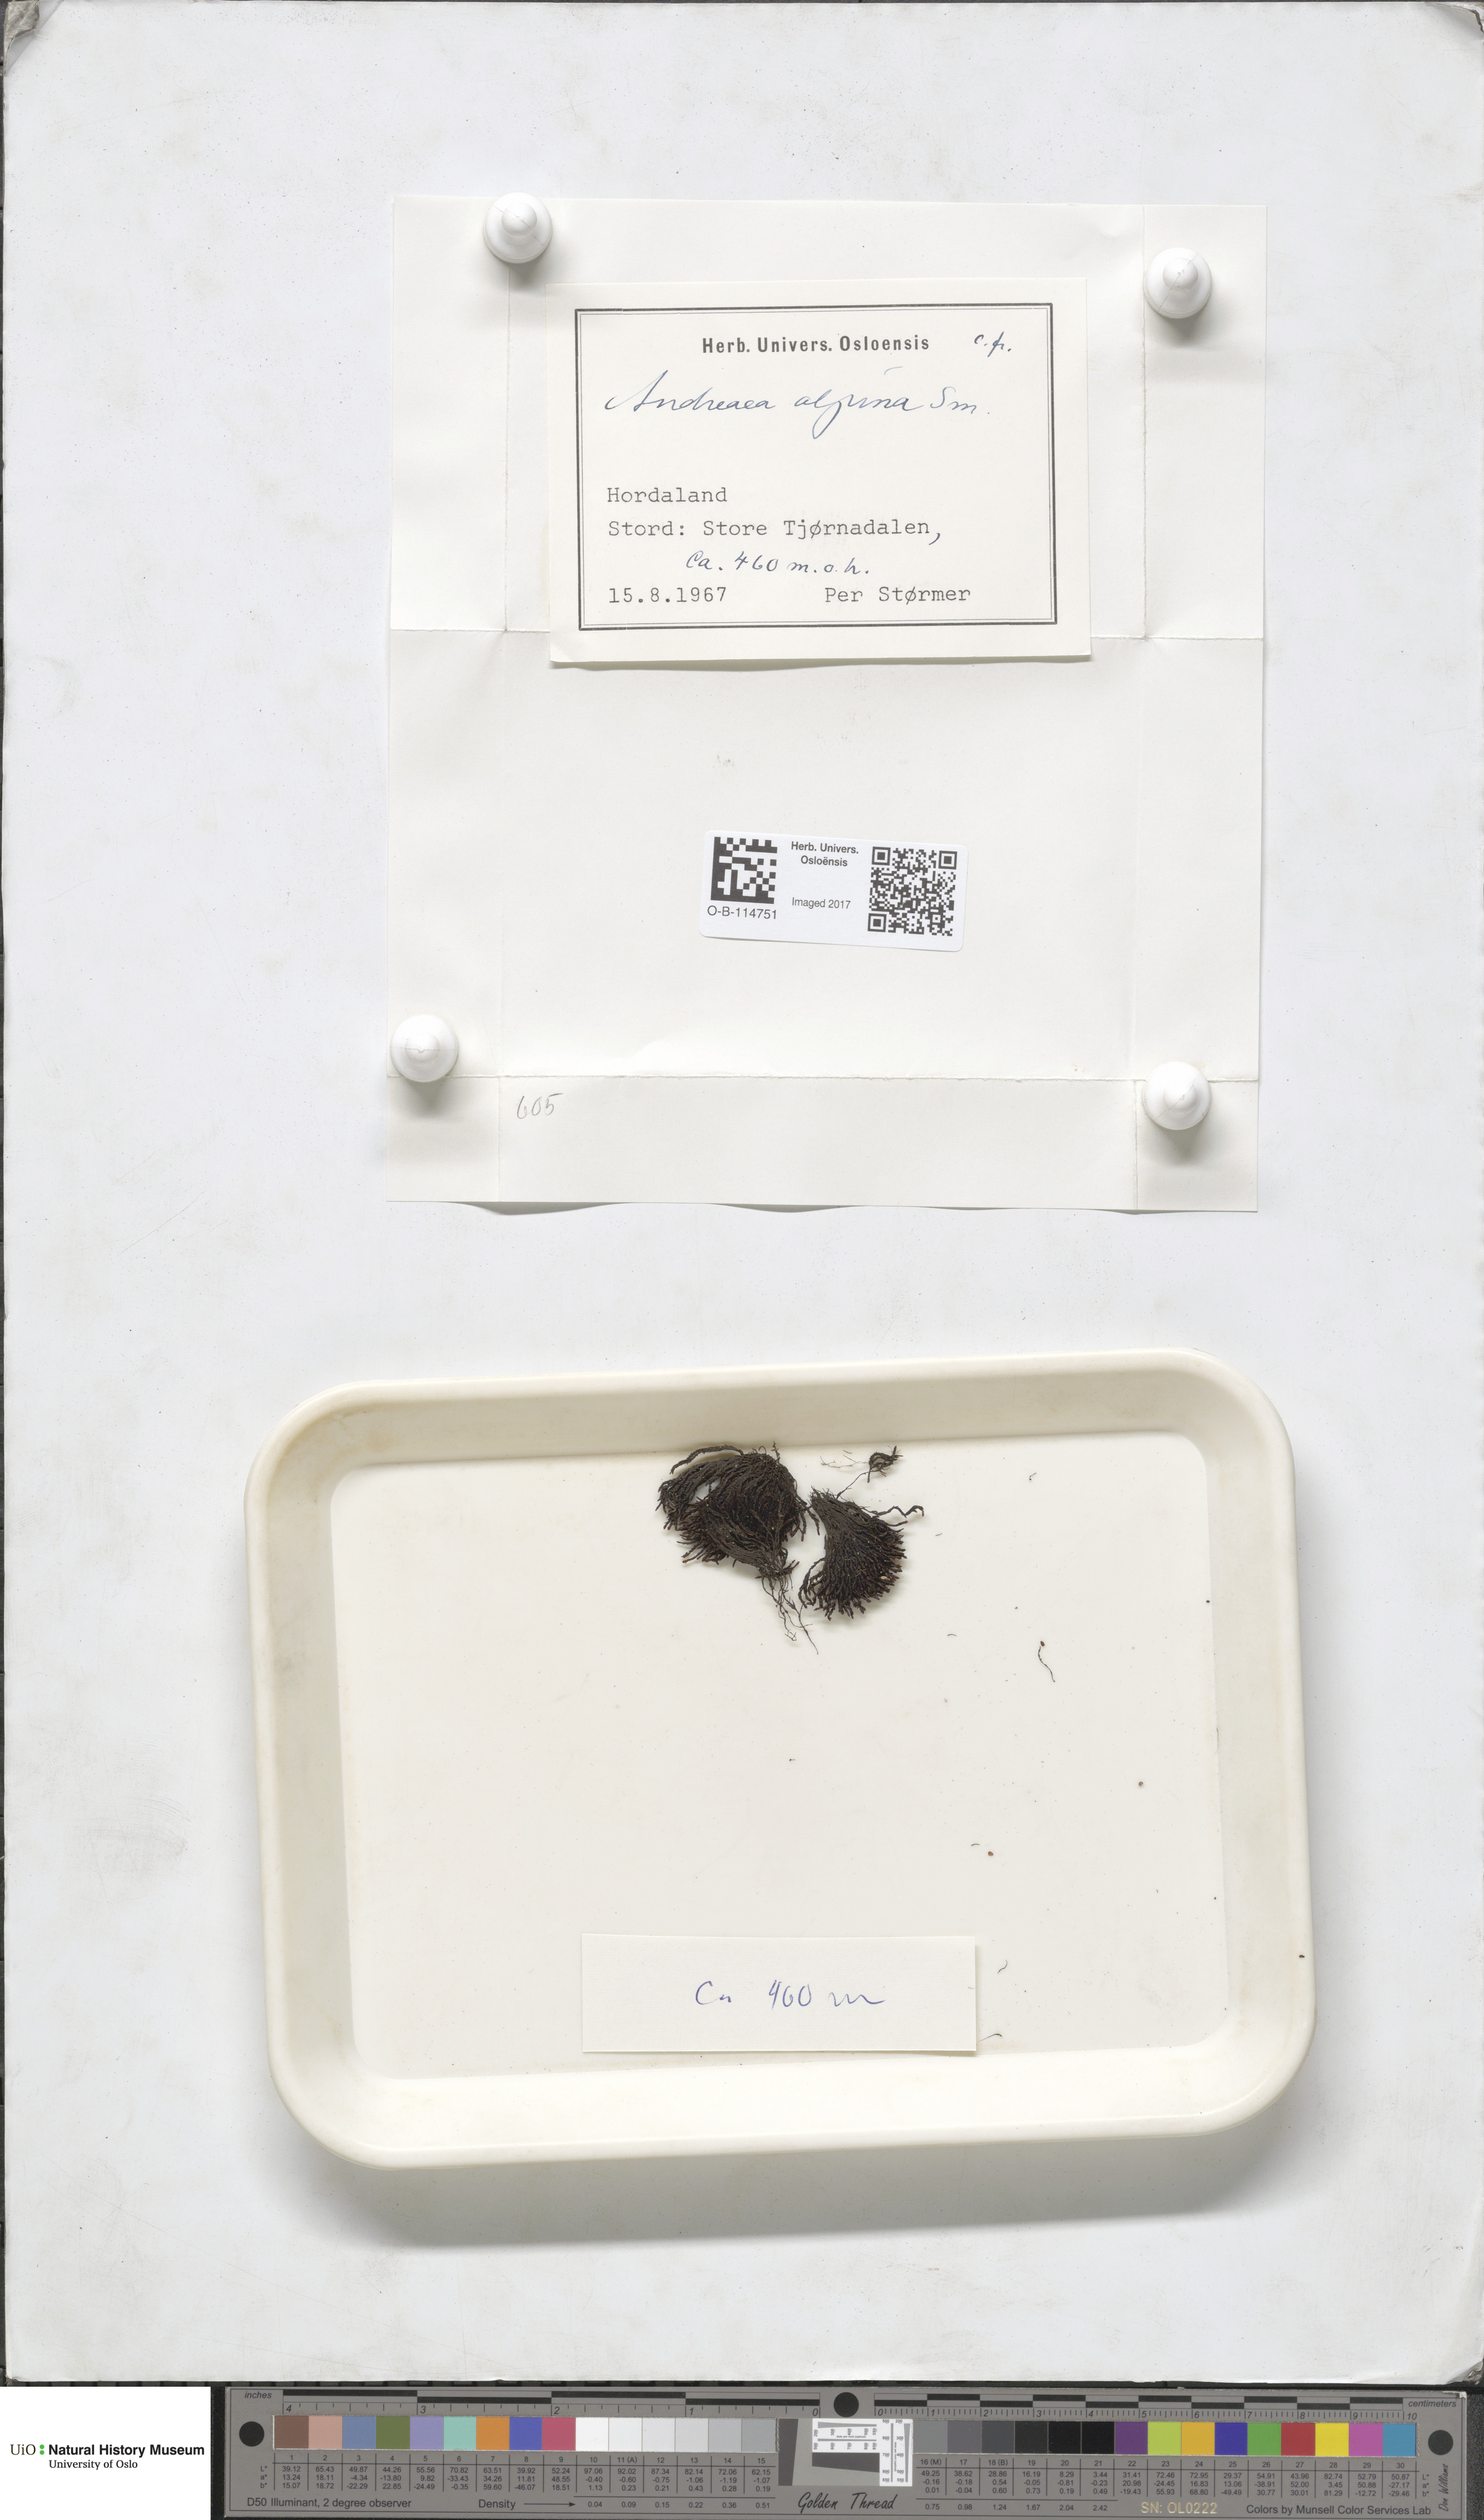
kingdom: Plantae
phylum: Bryophyta
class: Andreaeopsida
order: Andreaeales
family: Andreaeaceae
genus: Andreaea
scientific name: Andreaea hookeri
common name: Alpine rock-moss
